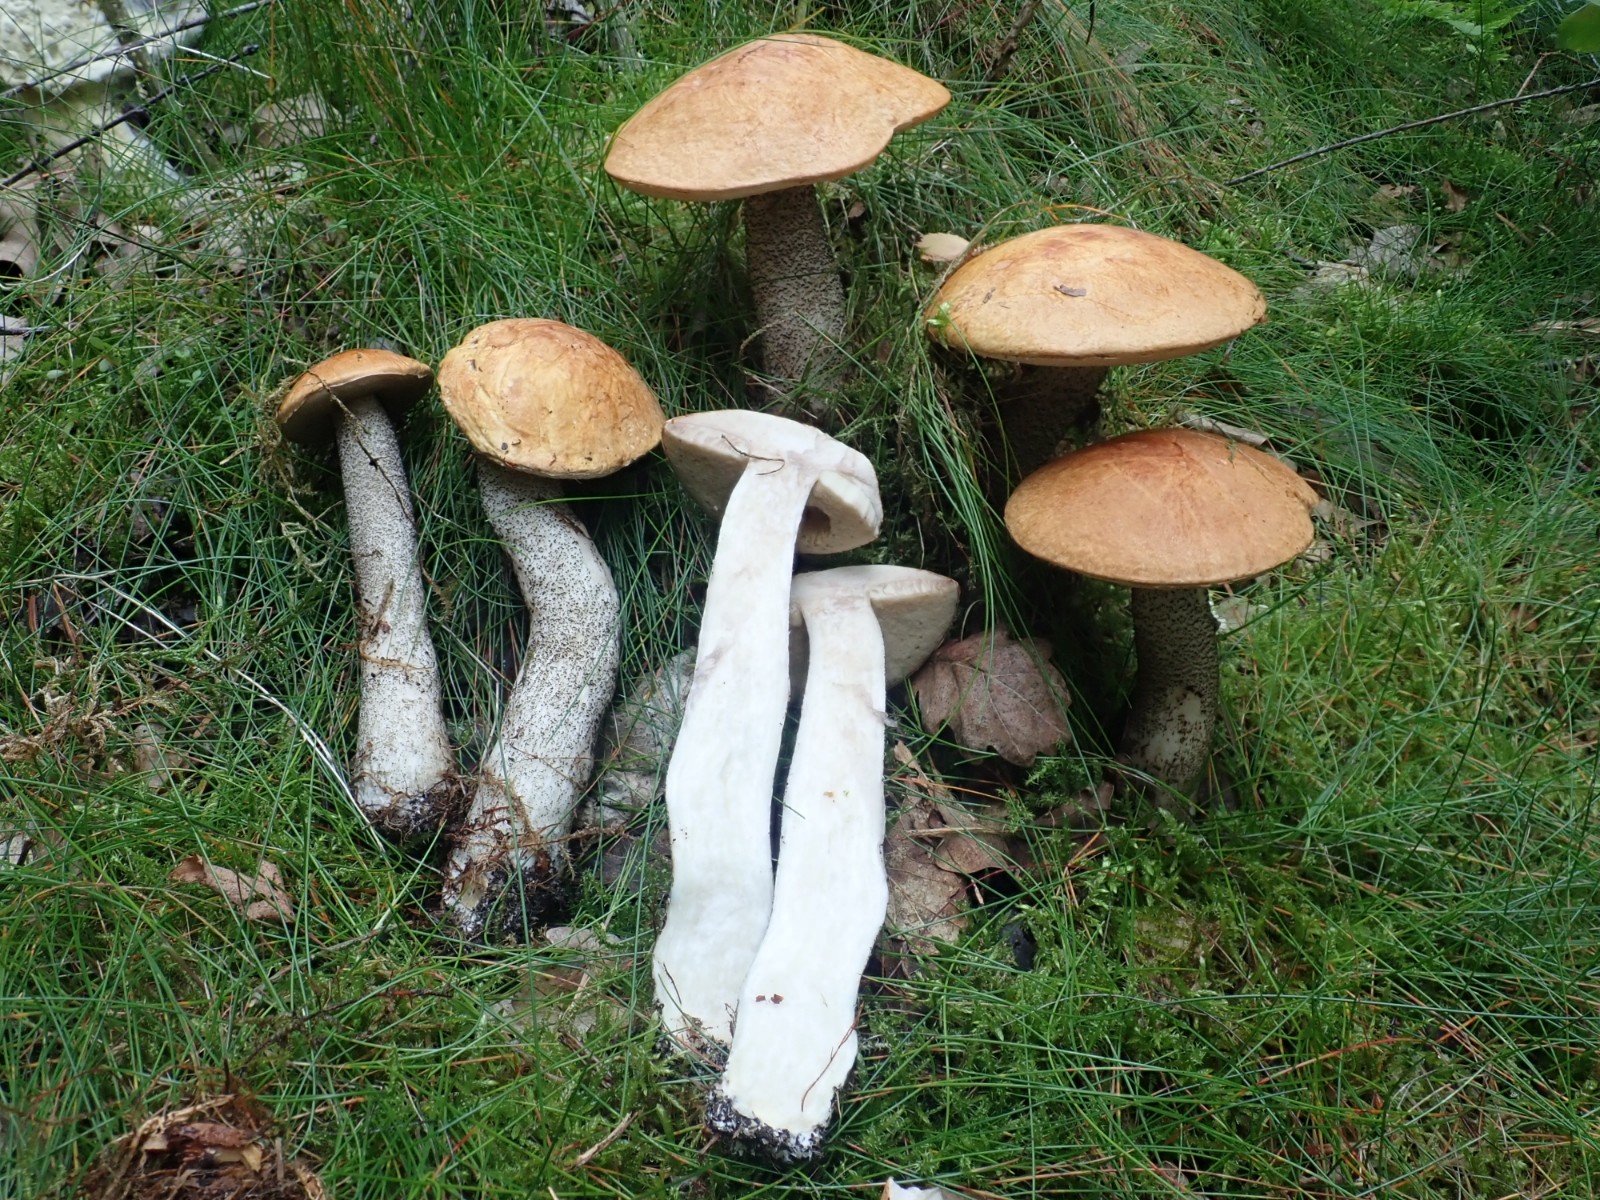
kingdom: Fungi
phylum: Basidiomycota
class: Agaricomycetes
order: Boletales
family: Boletaceae
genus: Leccinum
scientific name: Leccinum versipelle
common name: orange skælrørhat
